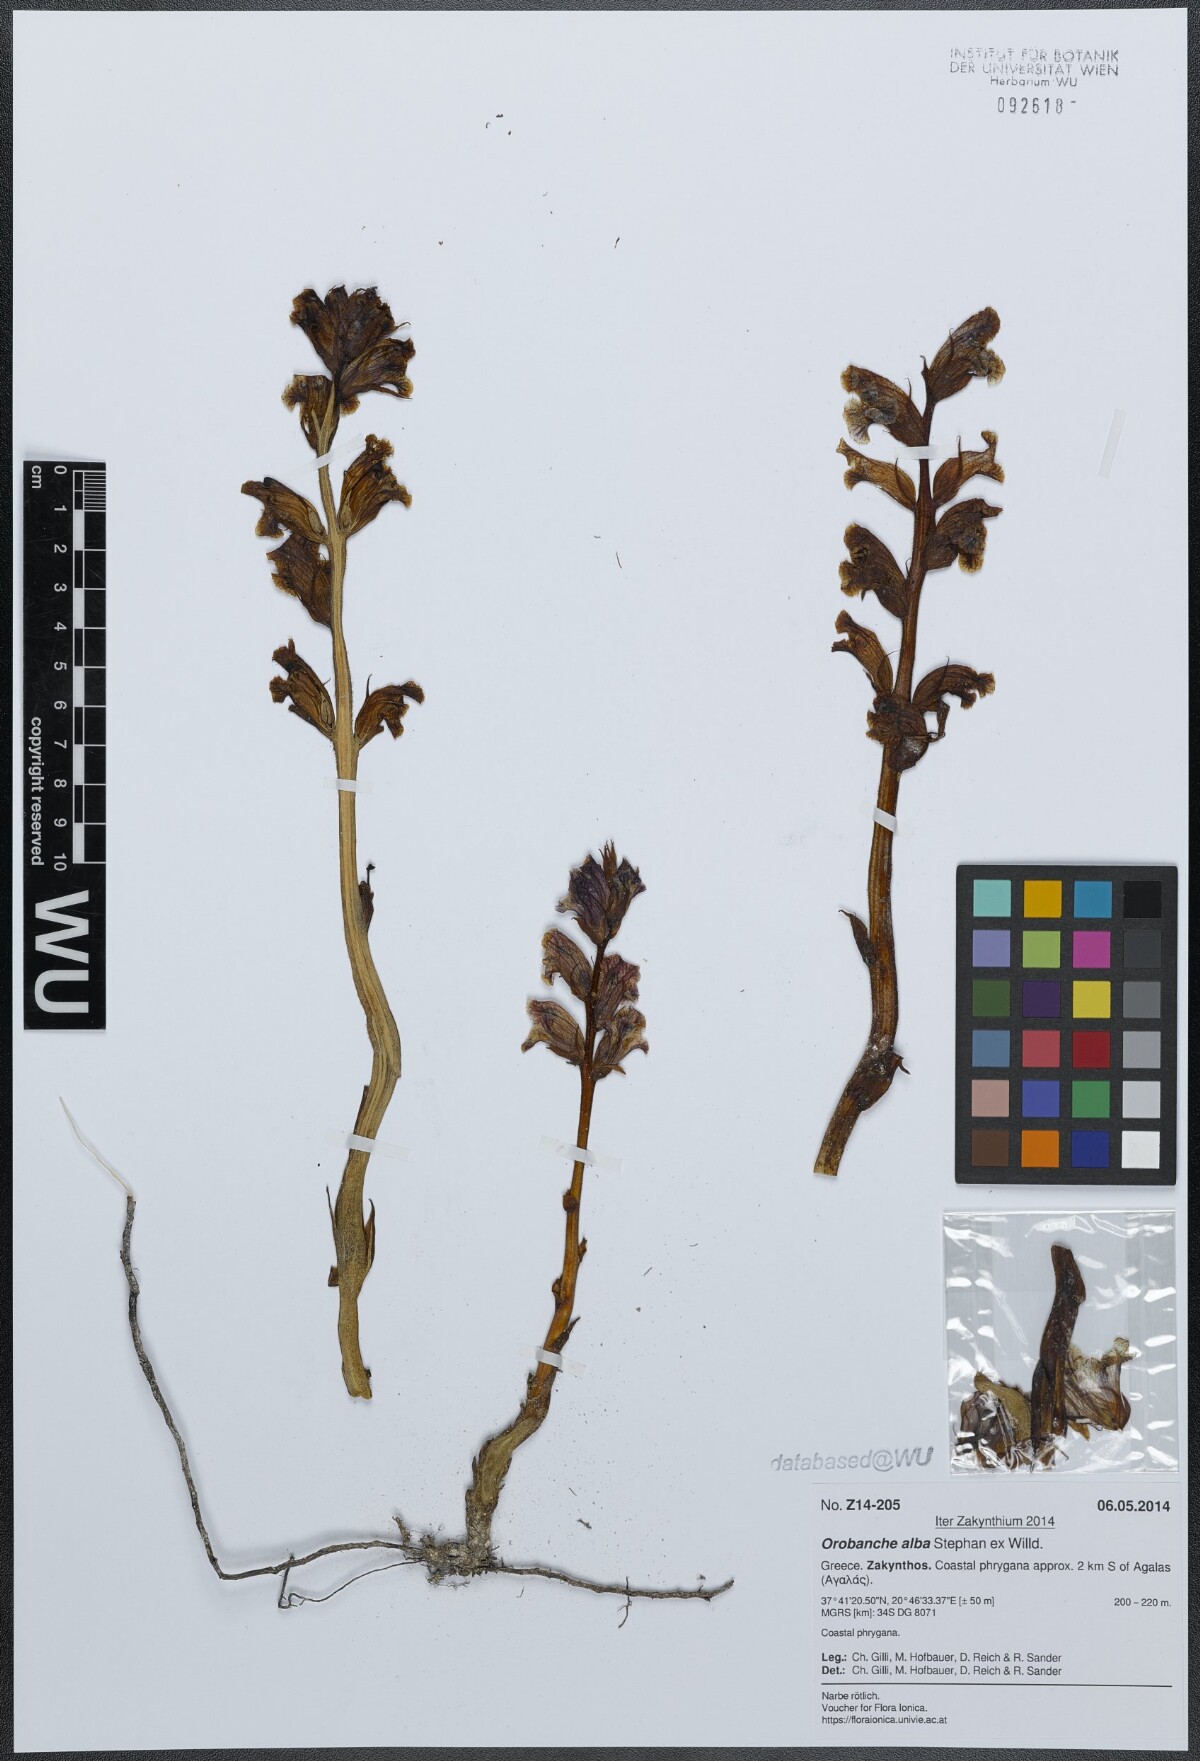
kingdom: Plantae
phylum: Tracheophyta
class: Magnoliopsida
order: Lamiales
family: Orobanchaceae
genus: Orobanche
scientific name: Orobanche alba
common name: Thyme broomrape
